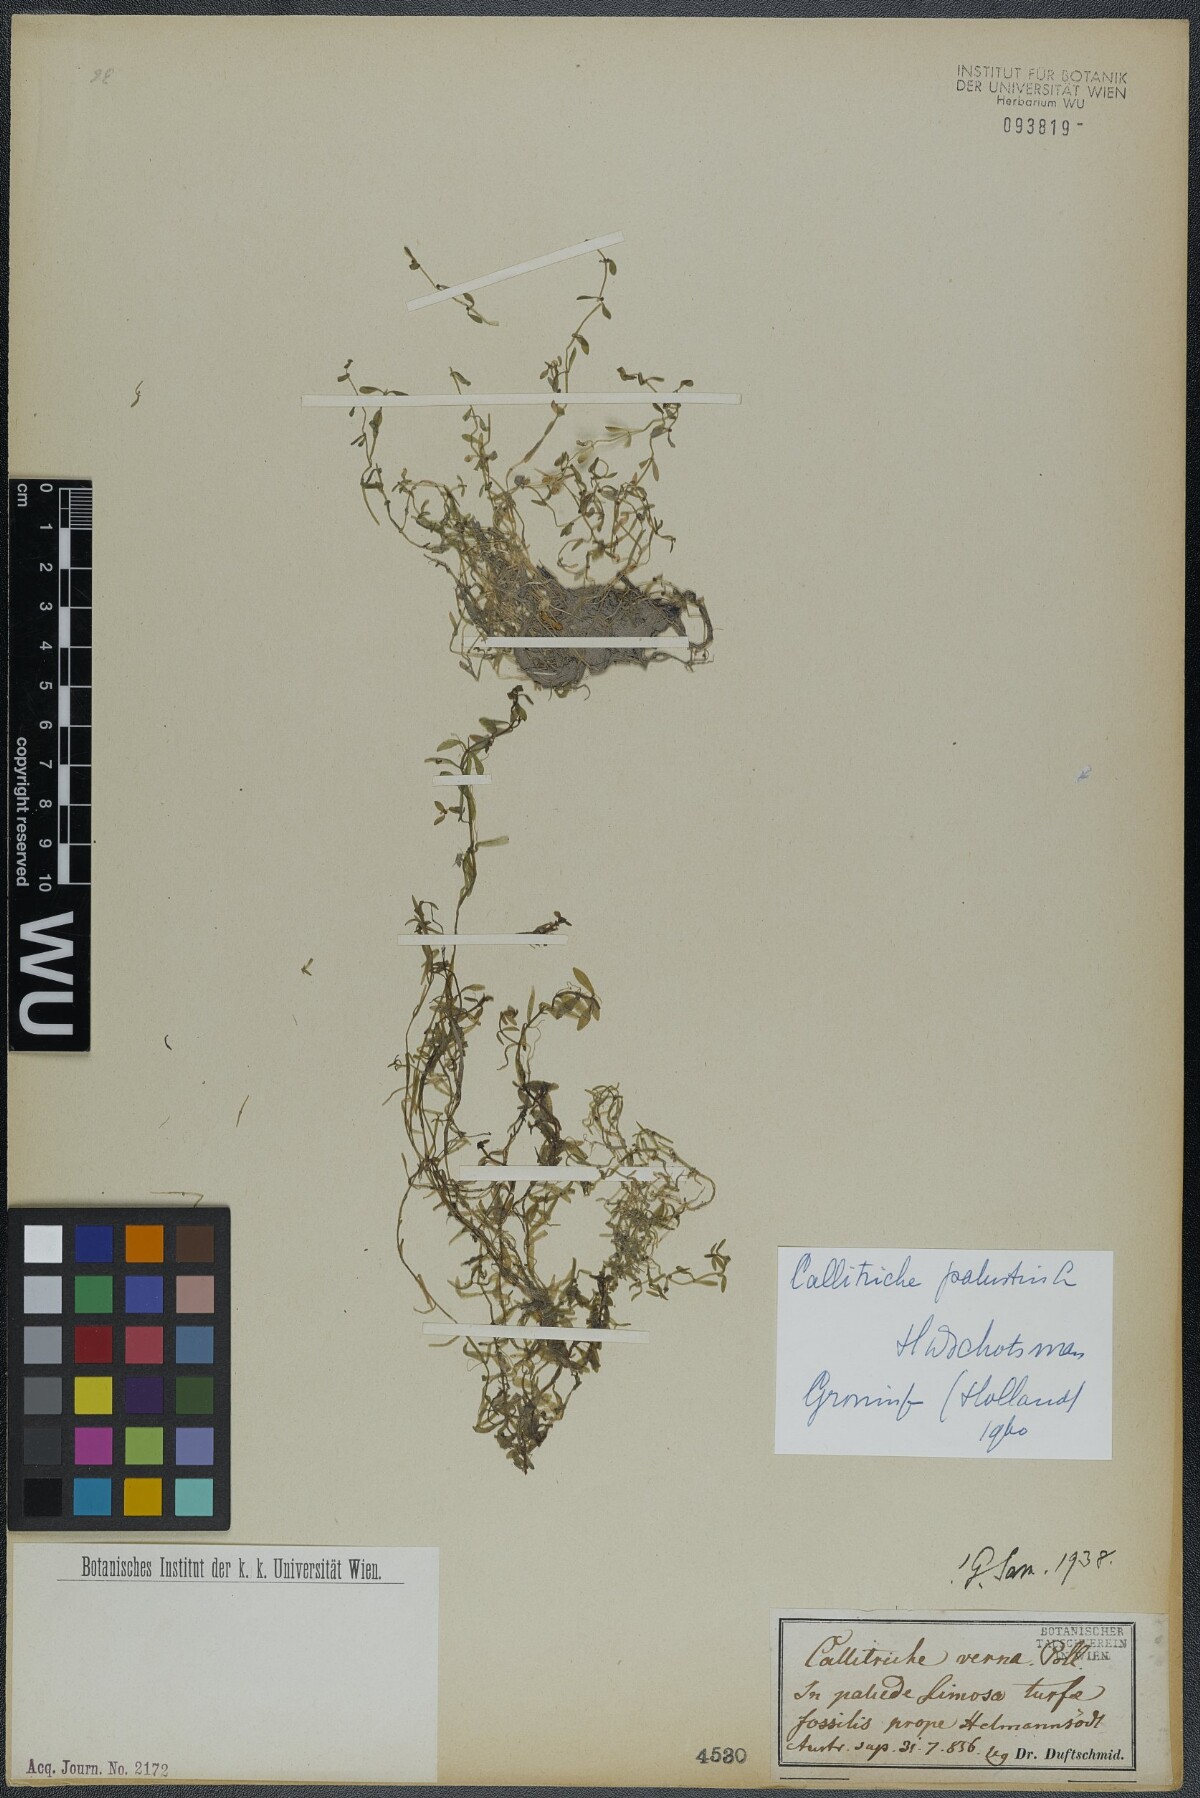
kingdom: Plantae
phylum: Tracheophyta
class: Magnoliopsida
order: Lamiales
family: Plantaginaceae
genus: Callitriche
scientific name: Callitriche palustris
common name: Spring water-starwort
